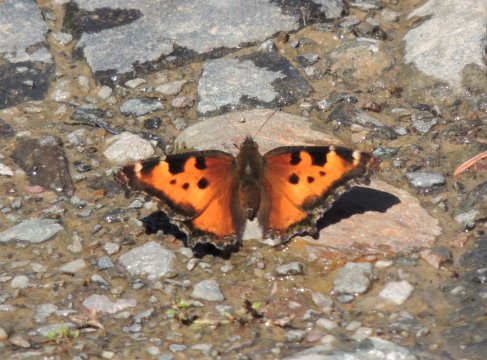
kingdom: Animalia
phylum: Arthropoda
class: Insecta
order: Lepidoptera
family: Nymphalidae
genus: Nymphalis
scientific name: Nymphalis californica
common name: California Tortoiseshell
